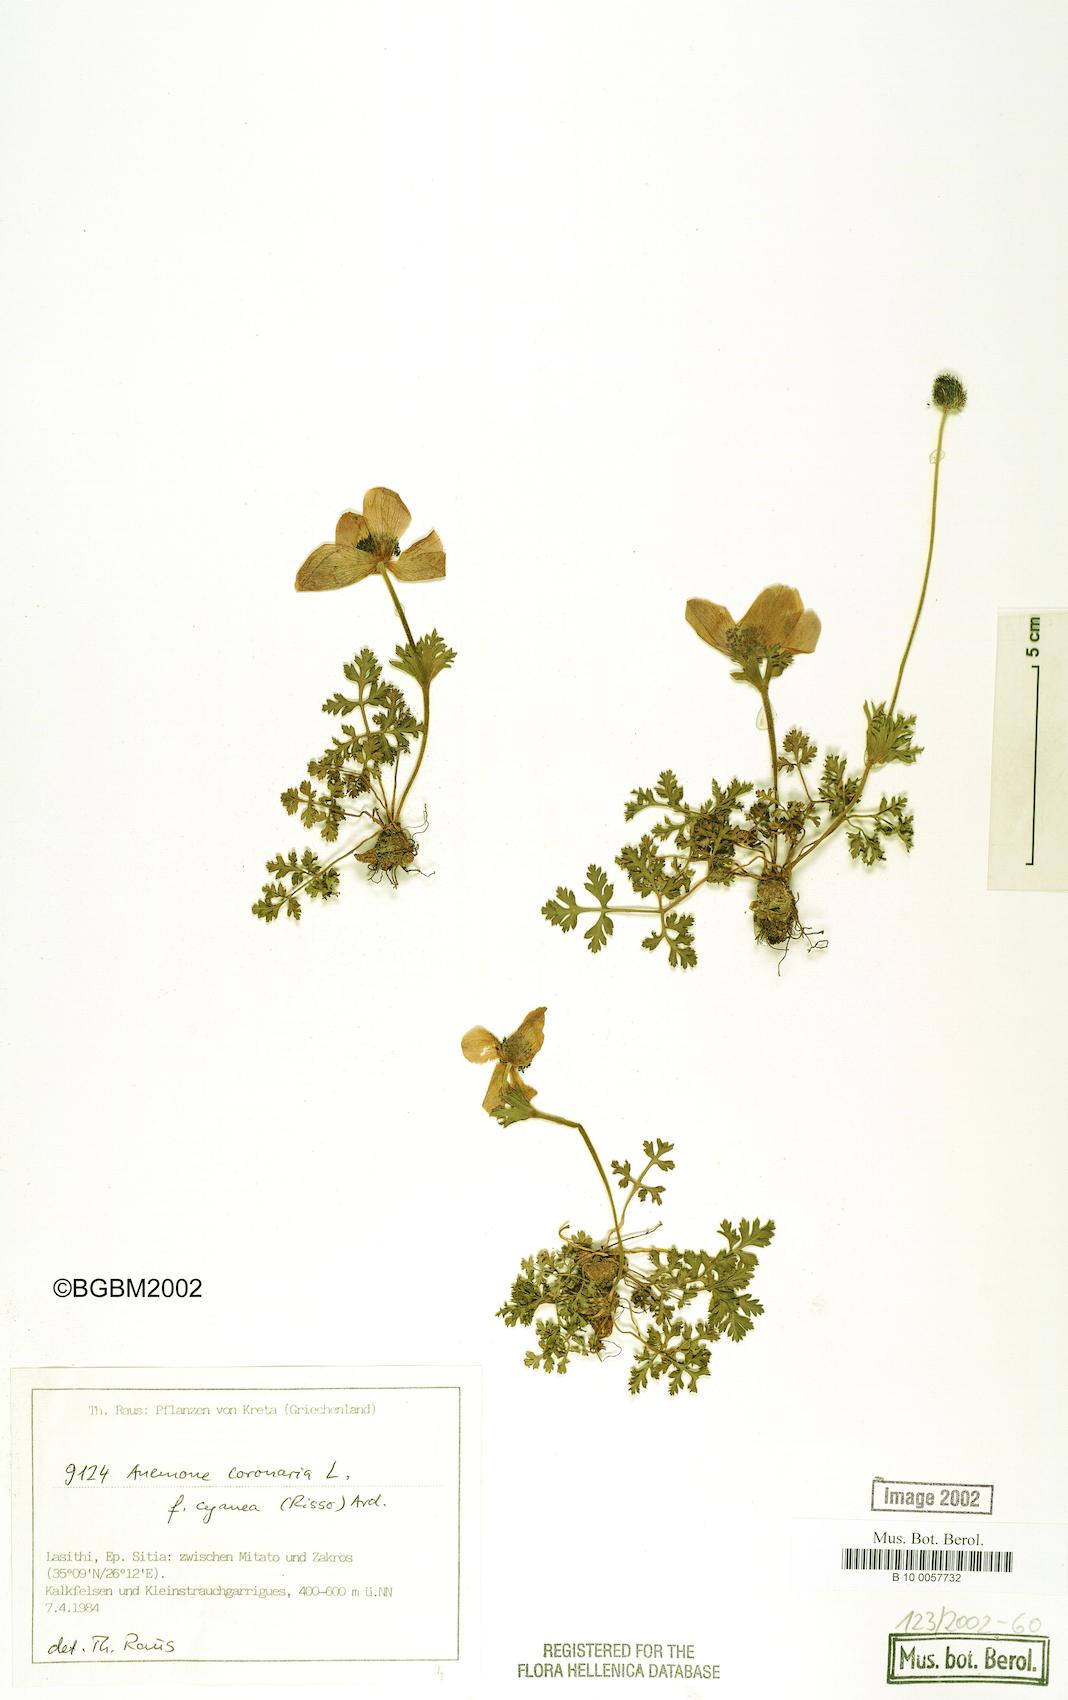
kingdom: Plantae
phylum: Tracheophyta
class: Magnoliopsida
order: Ranunculales
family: Ranunculaceae
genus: Anemone
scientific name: Anemone coronaria
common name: Poppy anemone
